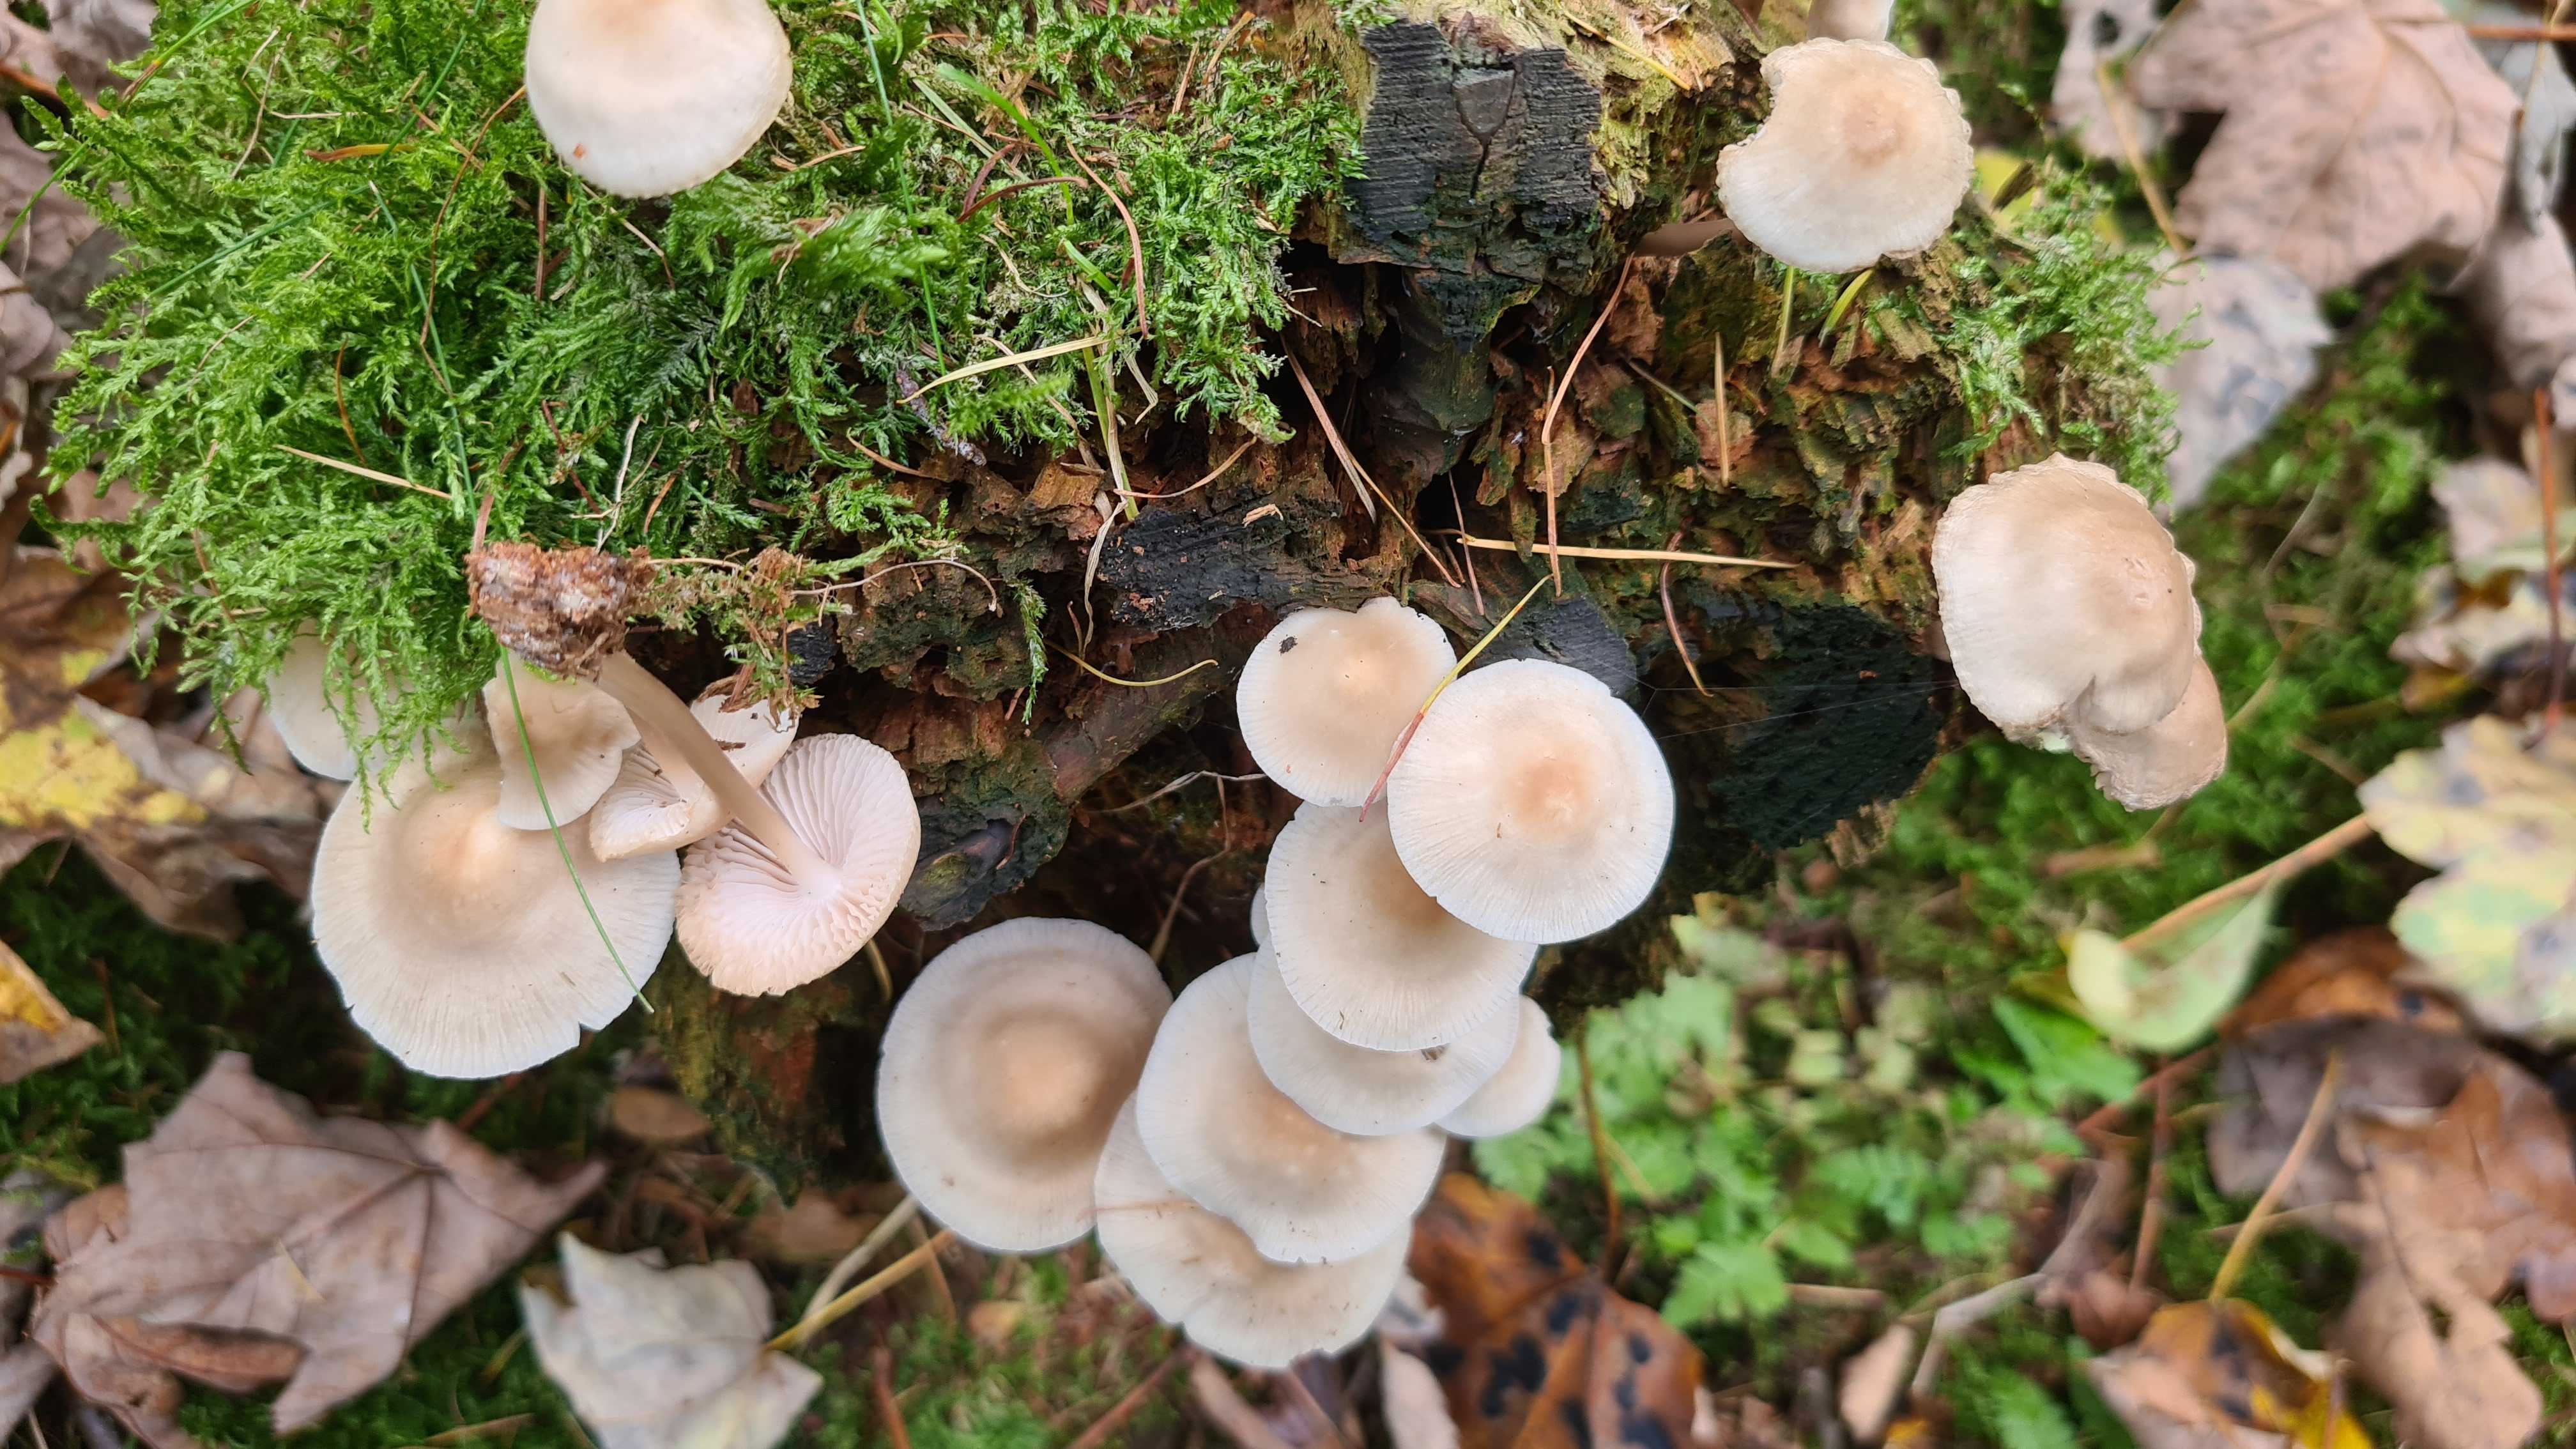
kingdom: Fungi
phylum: Basidiomycota
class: Agaricomycetes
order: Agaricales
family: Mycenaceae
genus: Mycena
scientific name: Mycena galericulata
